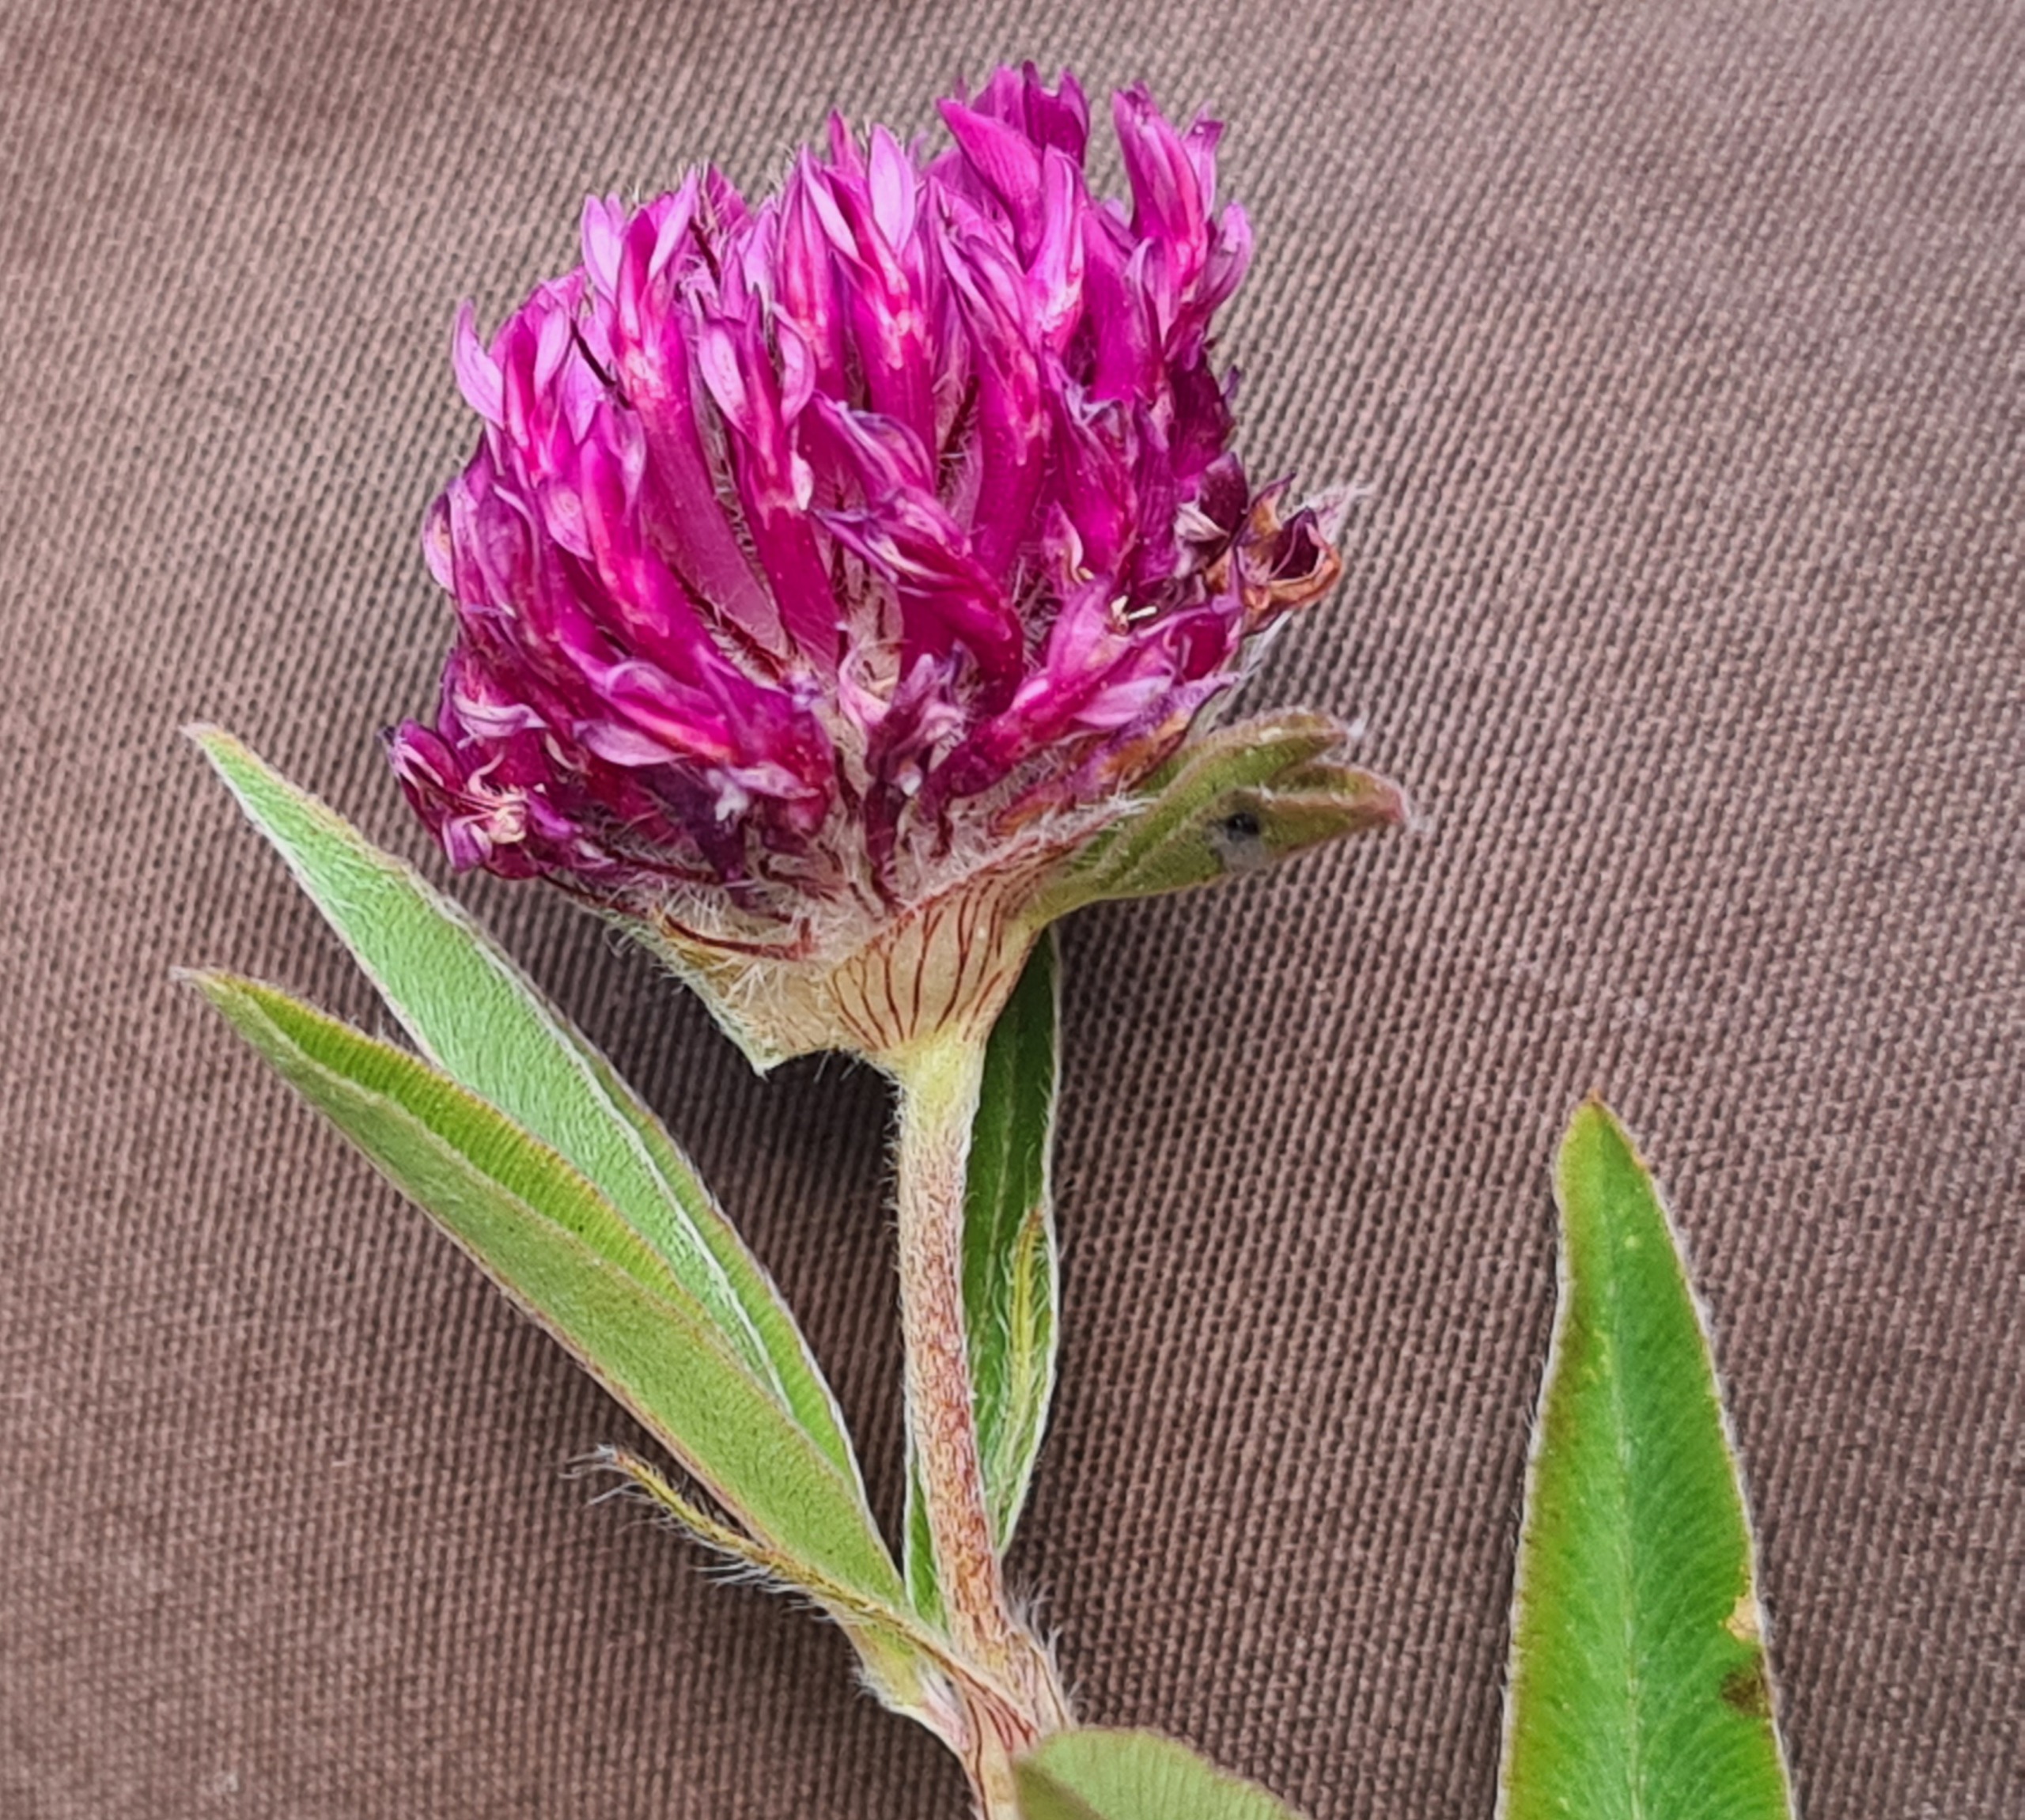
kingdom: Plantae
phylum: Tracheophyta
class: Magnoliopsida
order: Fabales
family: Fabaceae
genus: Trifolium
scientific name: Trifolium alpestre
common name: Skov-kløver
